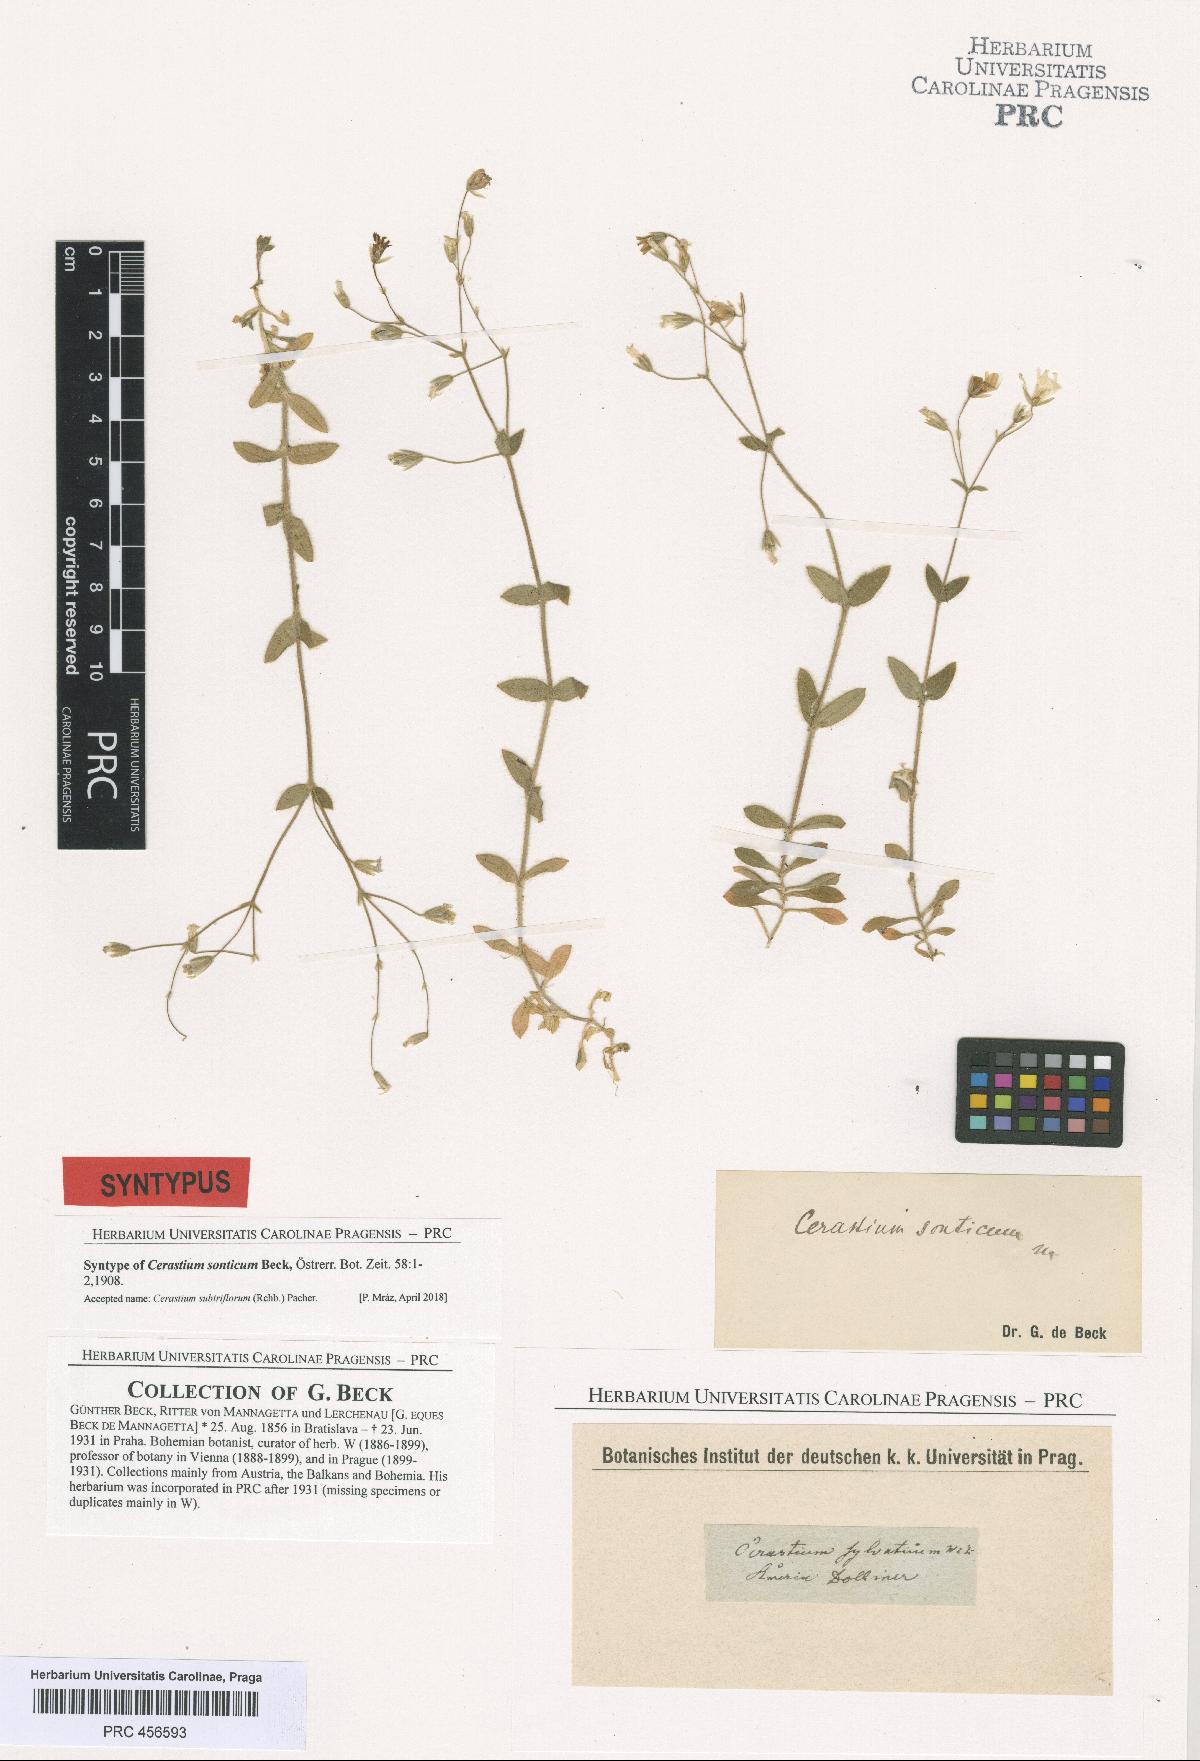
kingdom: Plantae
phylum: Tracheophyta
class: Magnoliopsida
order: Caryophyllales
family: Caryophyllaceae
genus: Cerastium
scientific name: Cerastium subtriflorum
